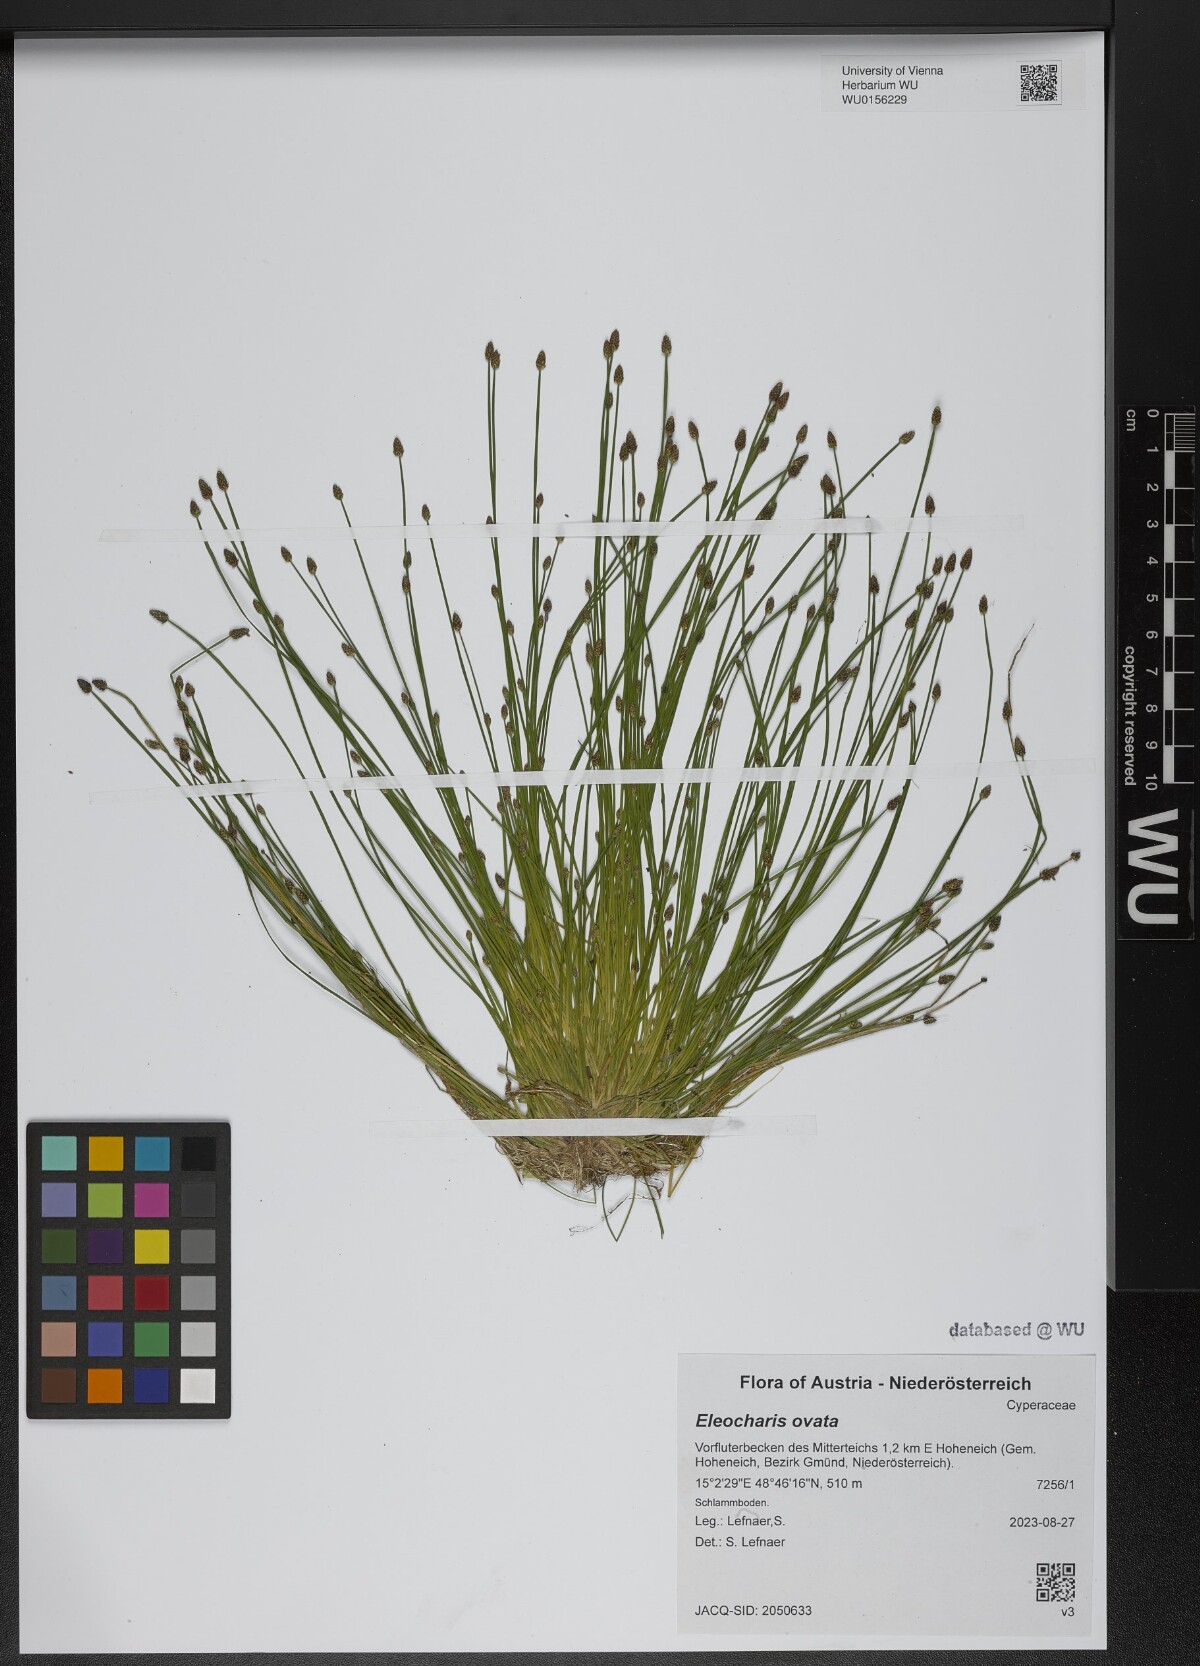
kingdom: Plantae
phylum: Tracheophyta
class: Liliopsida
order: Poales
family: Cyperaceae
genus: Eleocharis
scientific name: Eleocharis ovata
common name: Oval spike-rush
